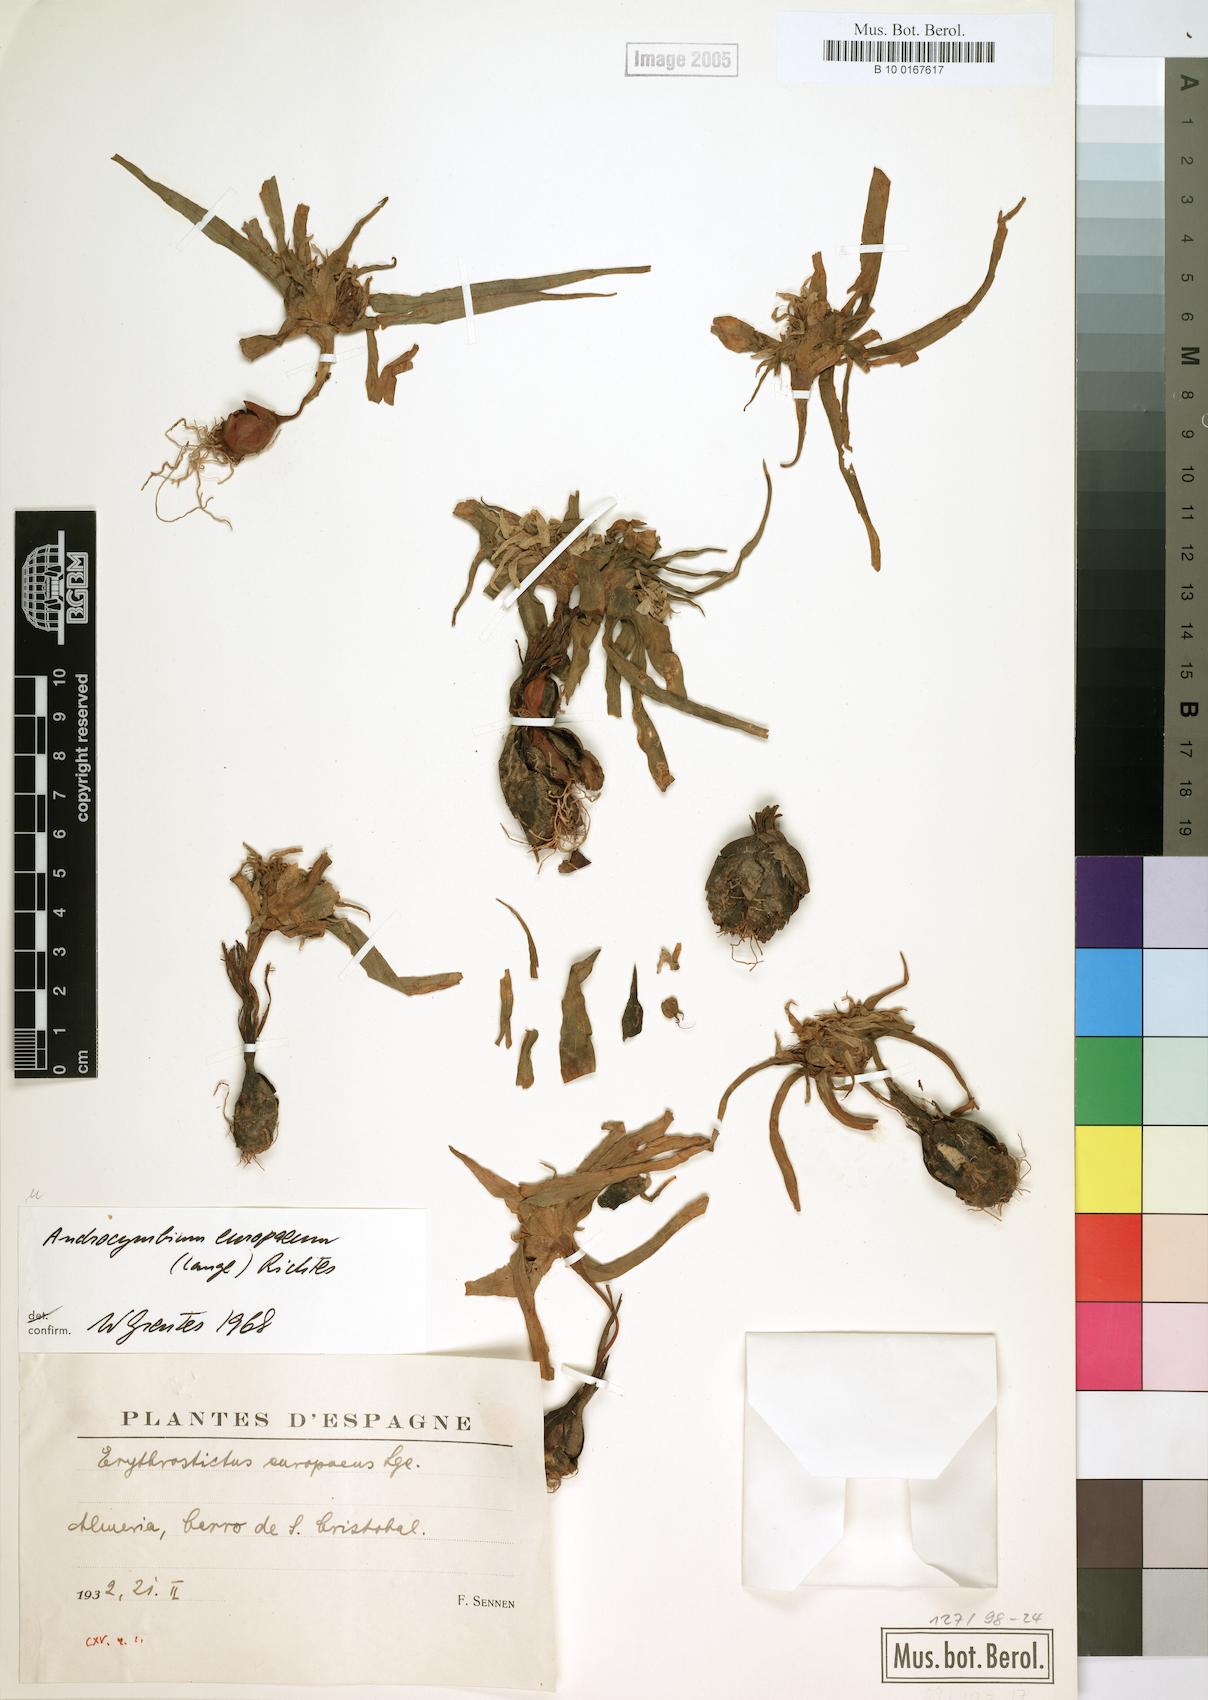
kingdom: Plantae
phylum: Tracheophyta
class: Liliopsida
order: Liliales
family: Colchicaceae
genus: Colchicum
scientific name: Colchicum europaeum
